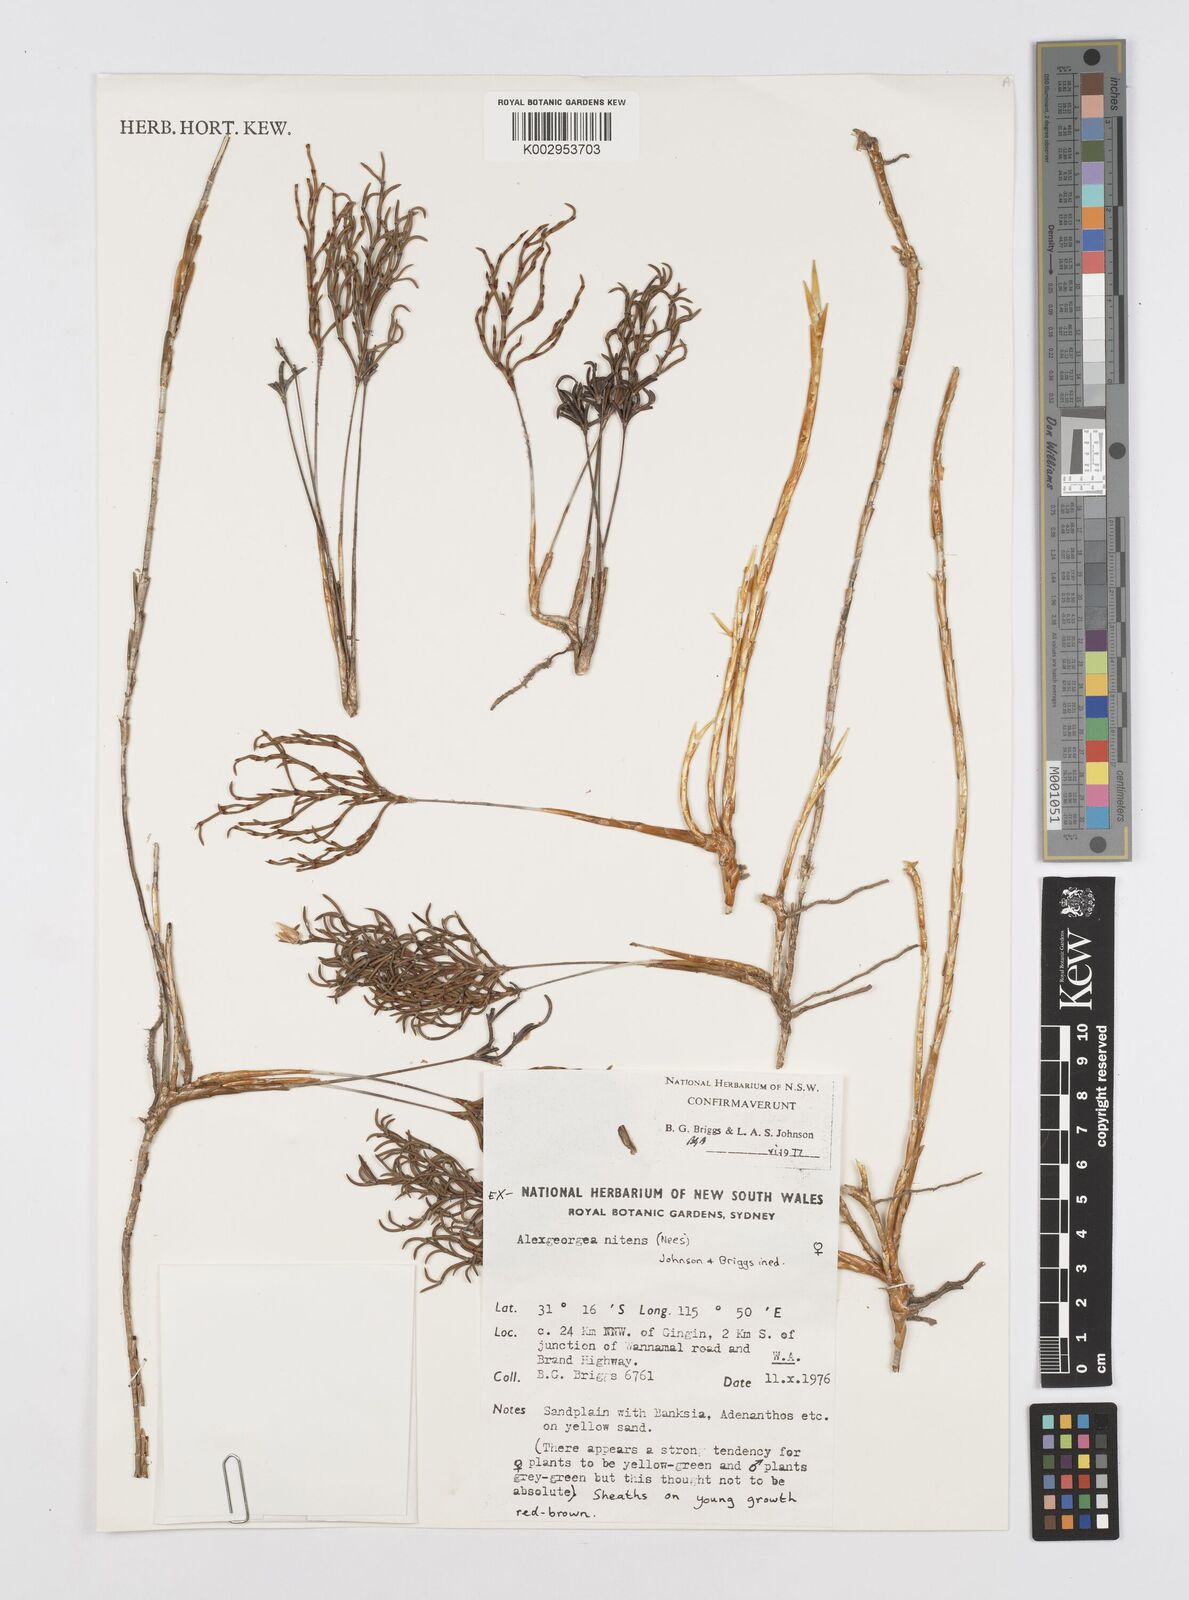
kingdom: Plantae
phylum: Tracheophyta
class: Liliopsida
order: Poales
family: Restionaceae
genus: Alexgeorgea
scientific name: Alexgeorgea nitens
